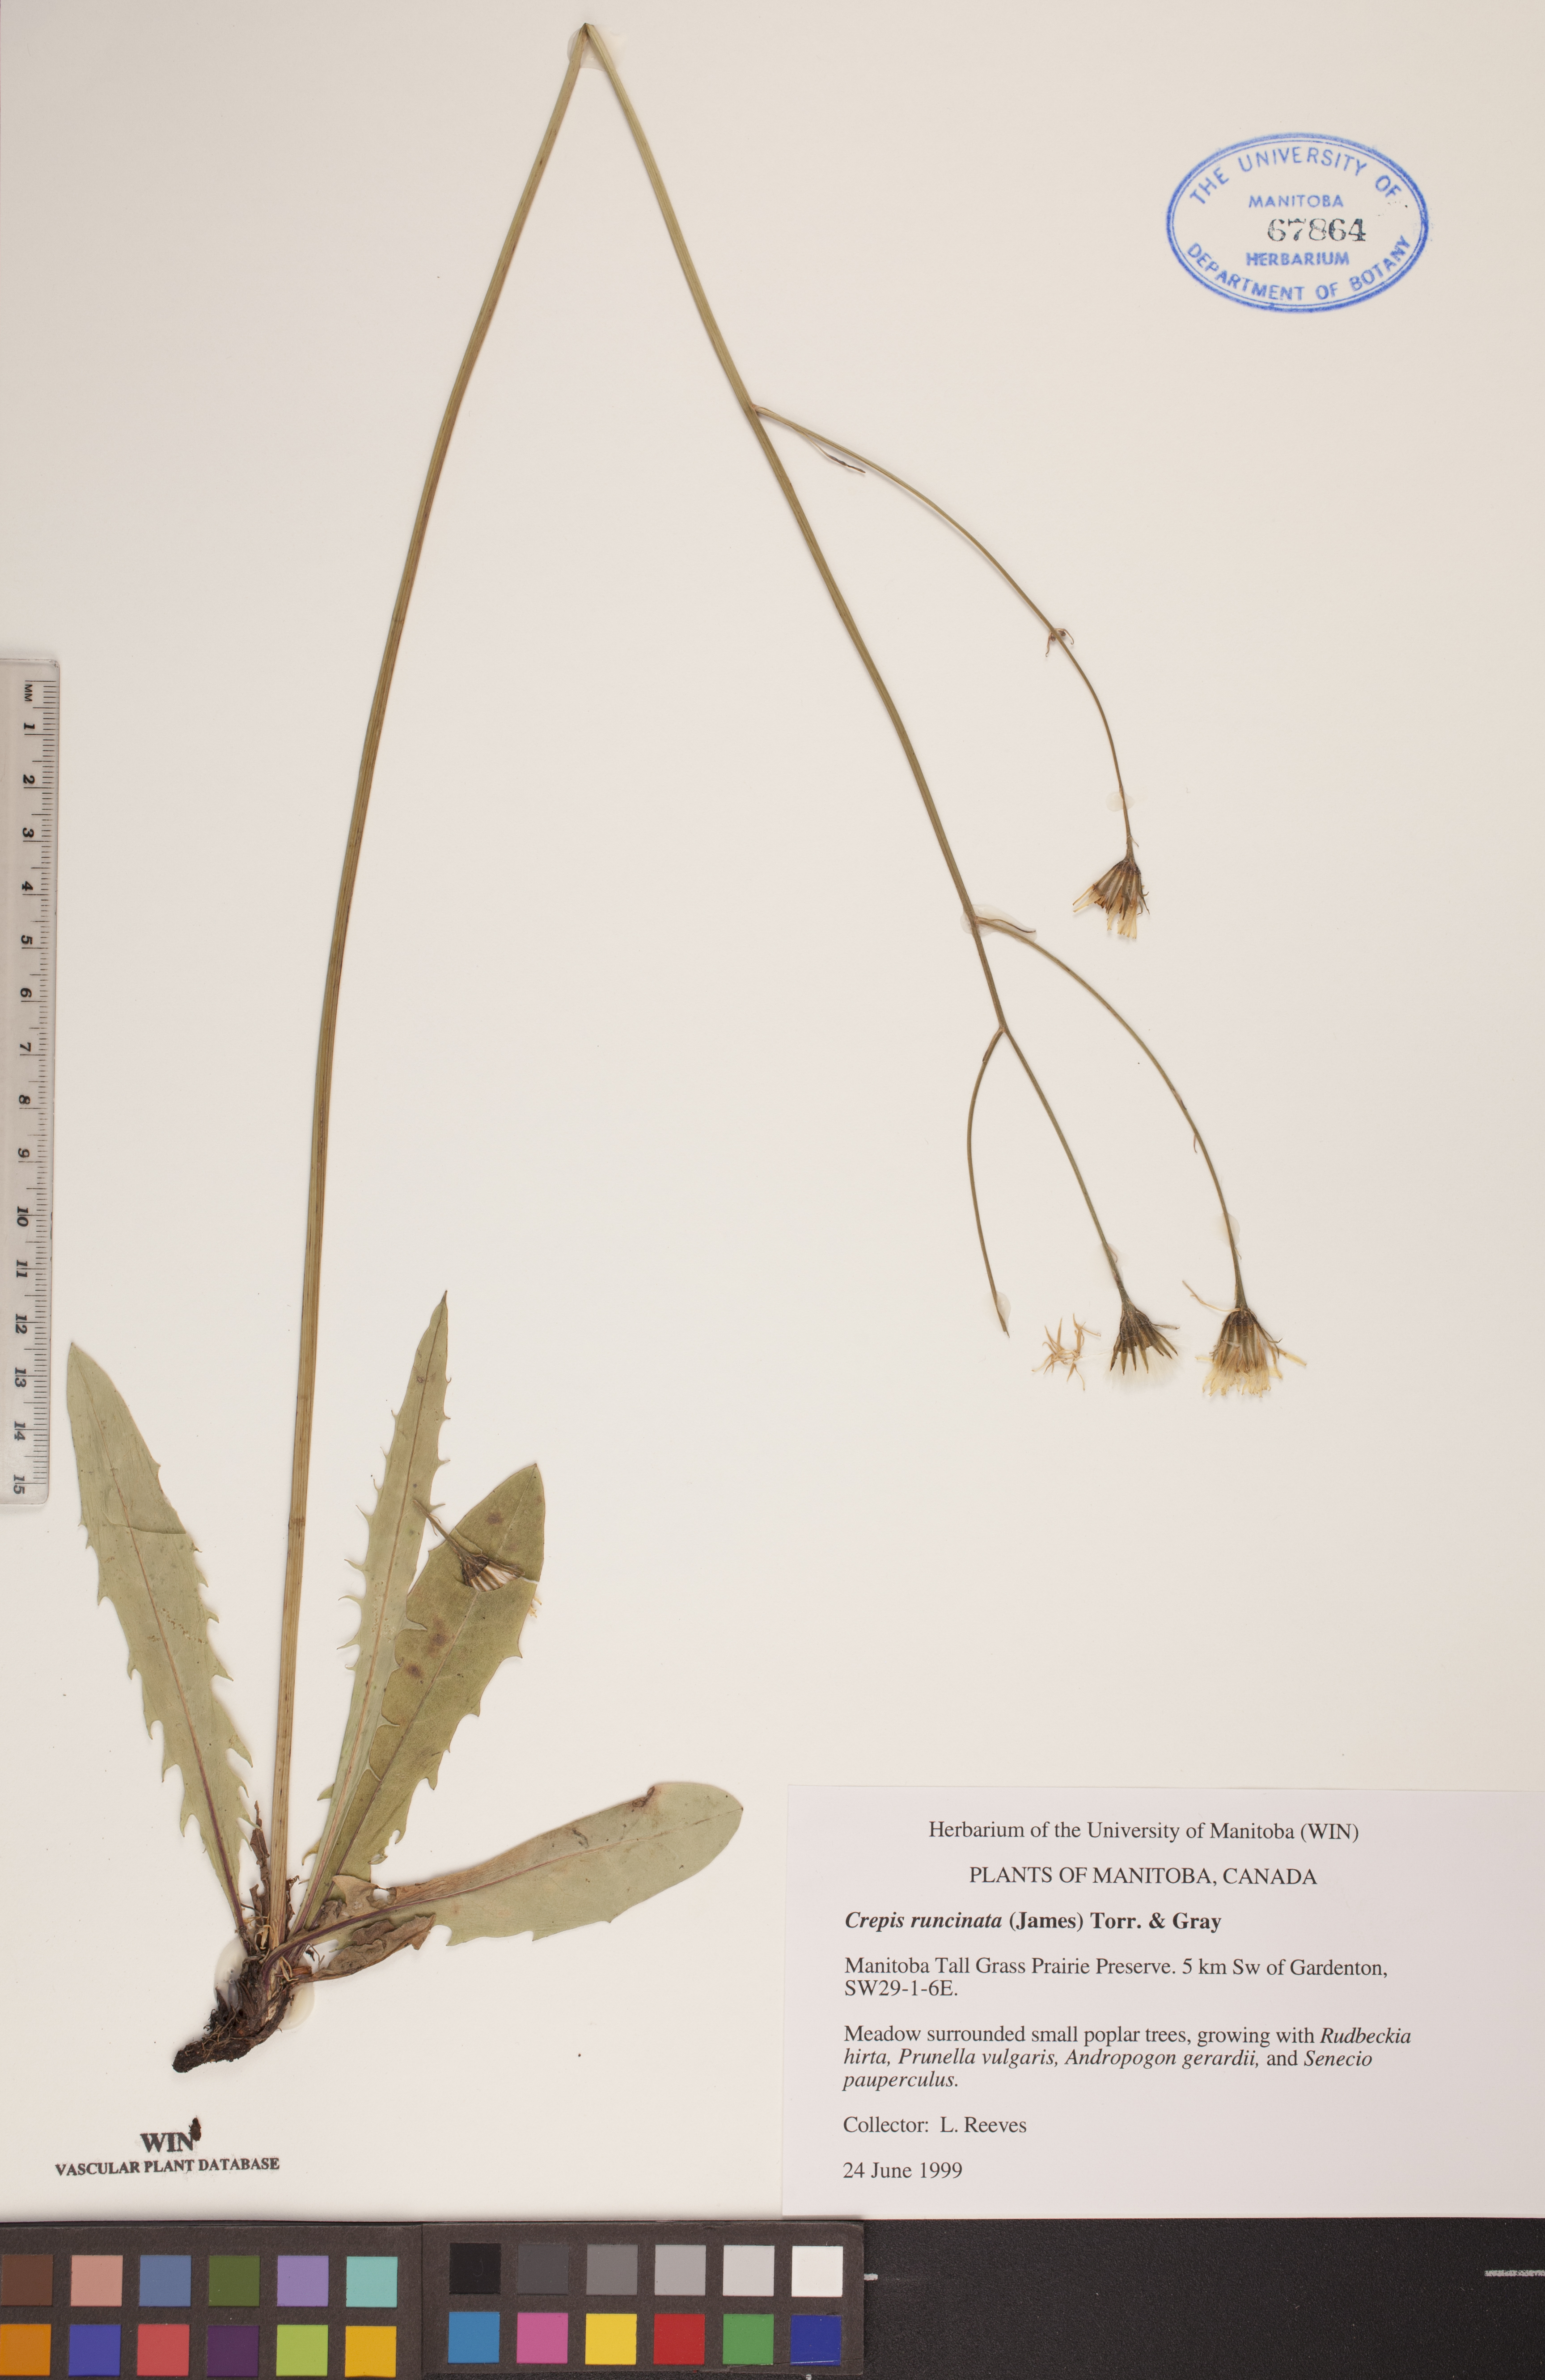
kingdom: Plantae
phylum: Tracheophyta
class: Magnoliopsida
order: Asterales
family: Asteraceae
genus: Crepis
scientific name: Crepis runcinata
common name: Dandelion hawksbeard
